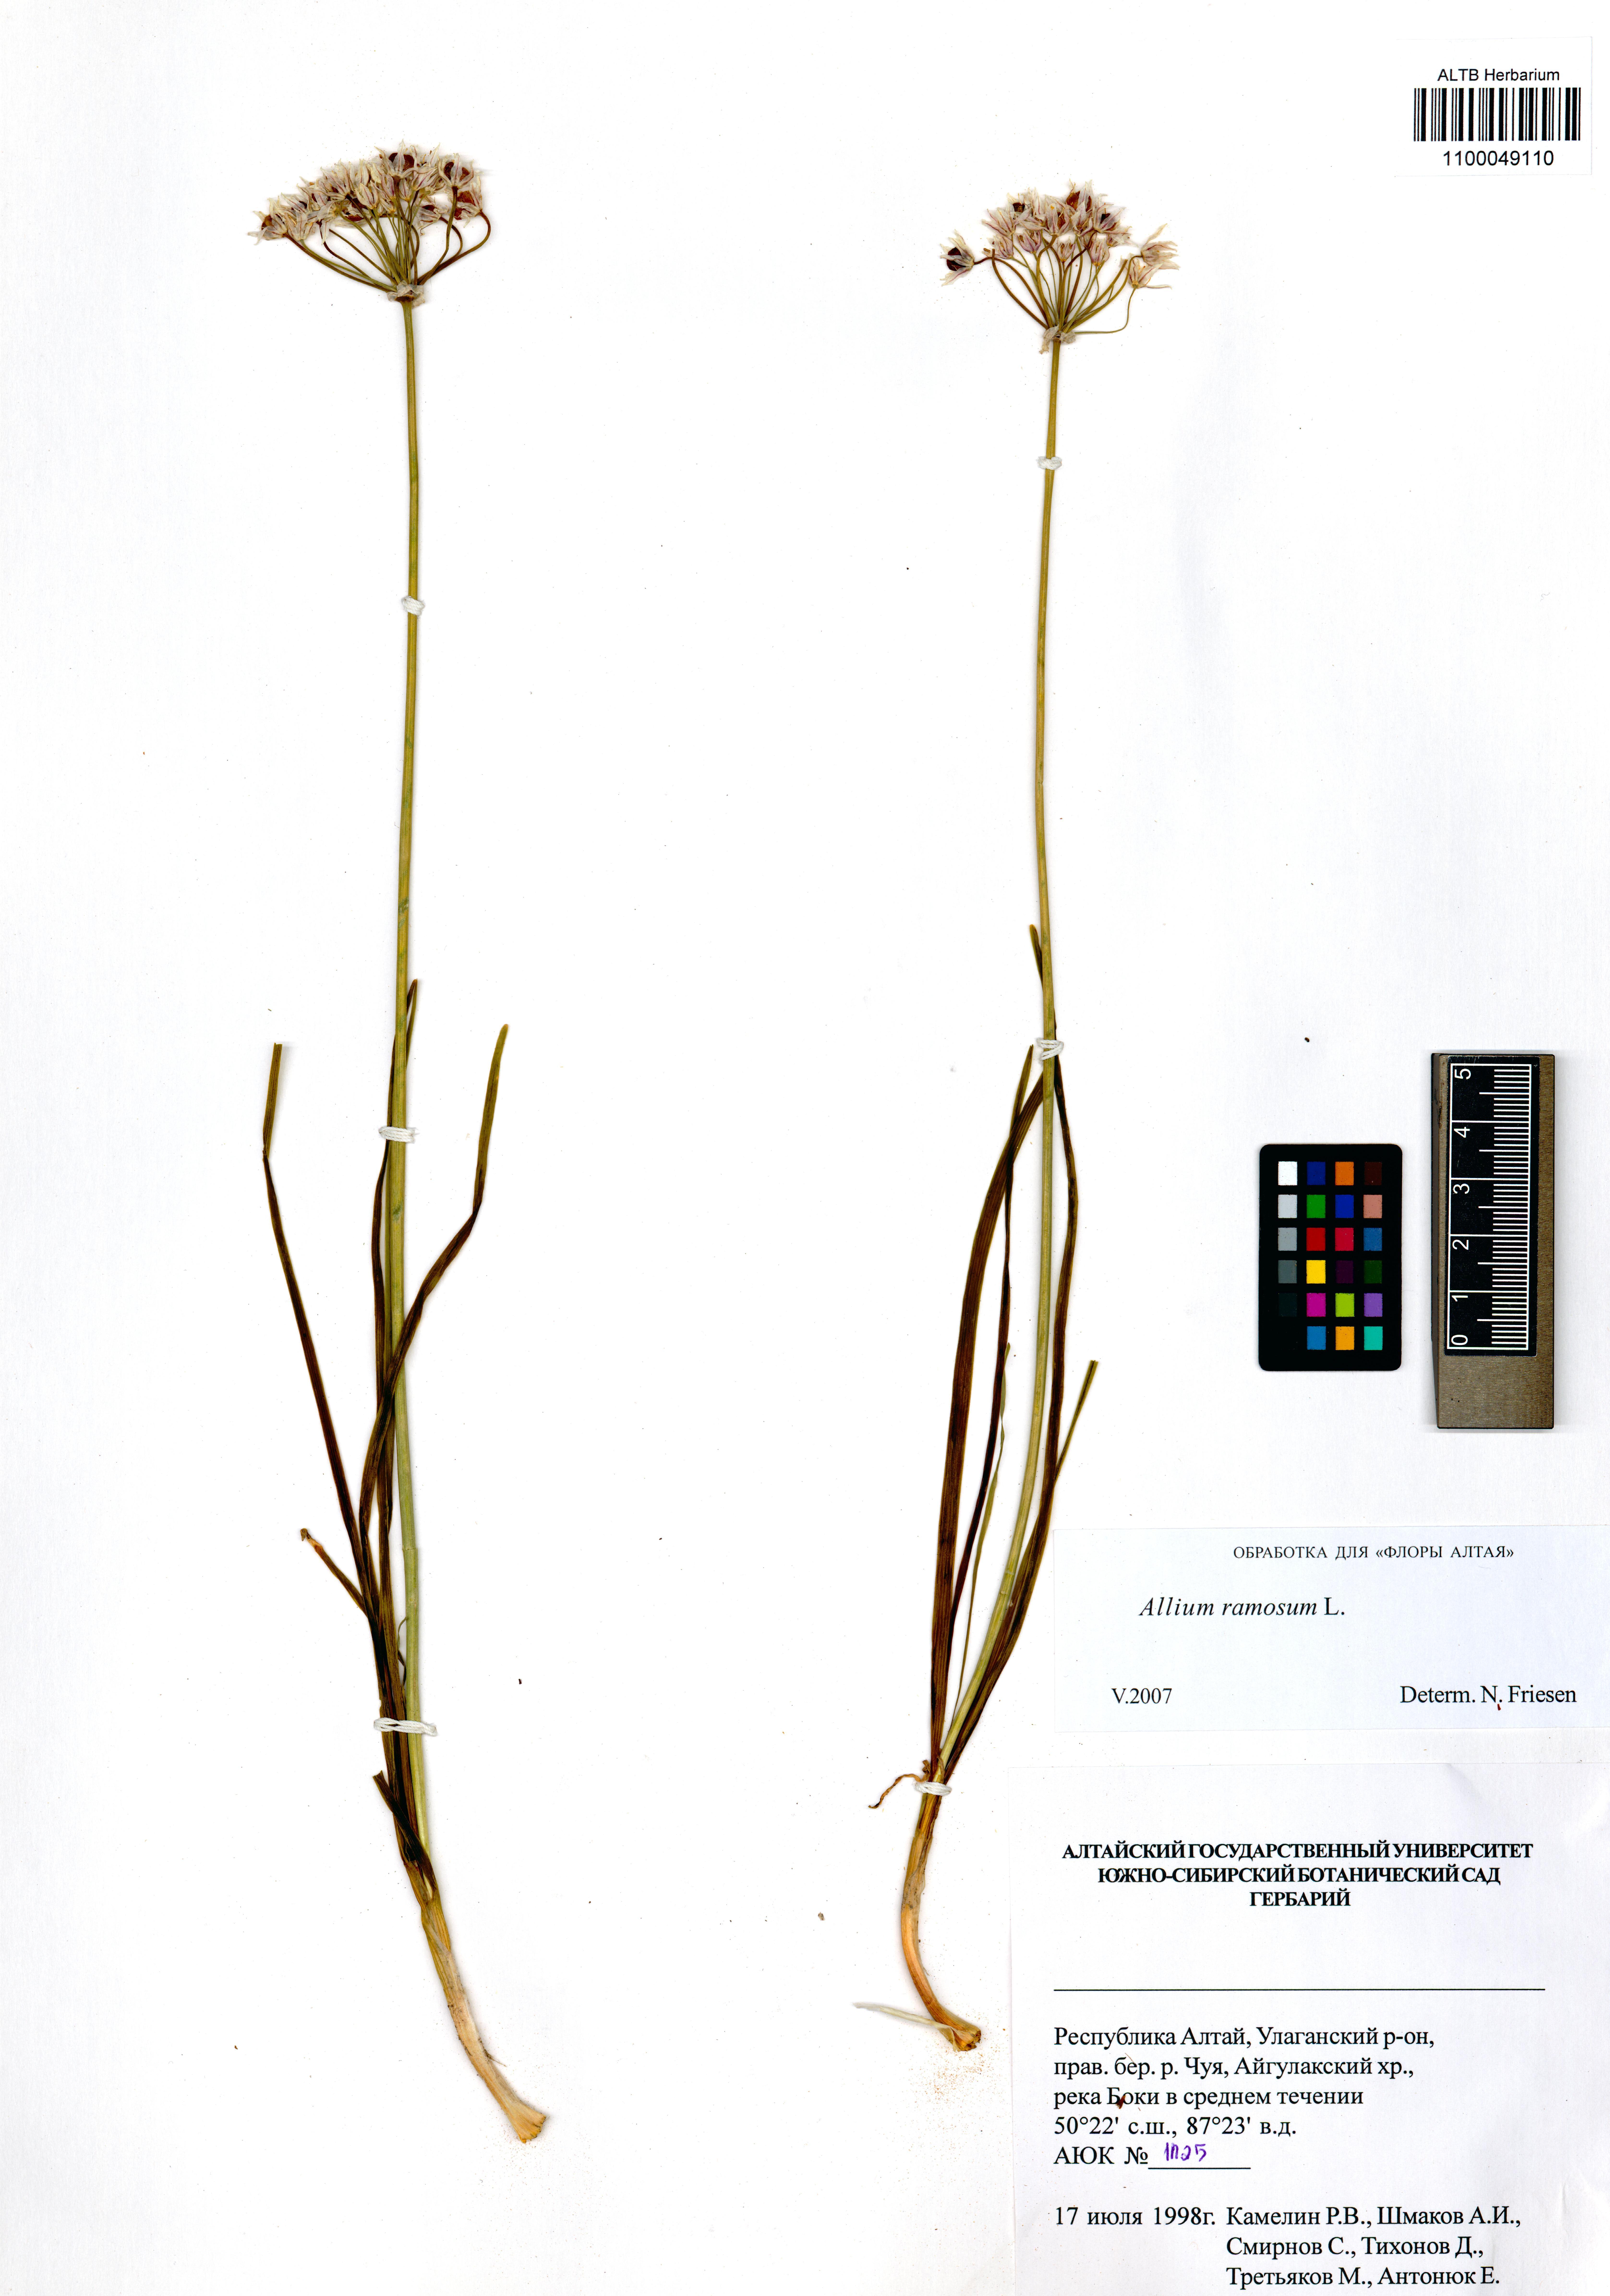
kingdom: Plantae
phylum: Tracheophyta
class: Liliopsida
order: Asparagales
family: Amaryllidaceae
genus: Allium
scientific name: Allium ramosum
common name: Fragrant garlic
